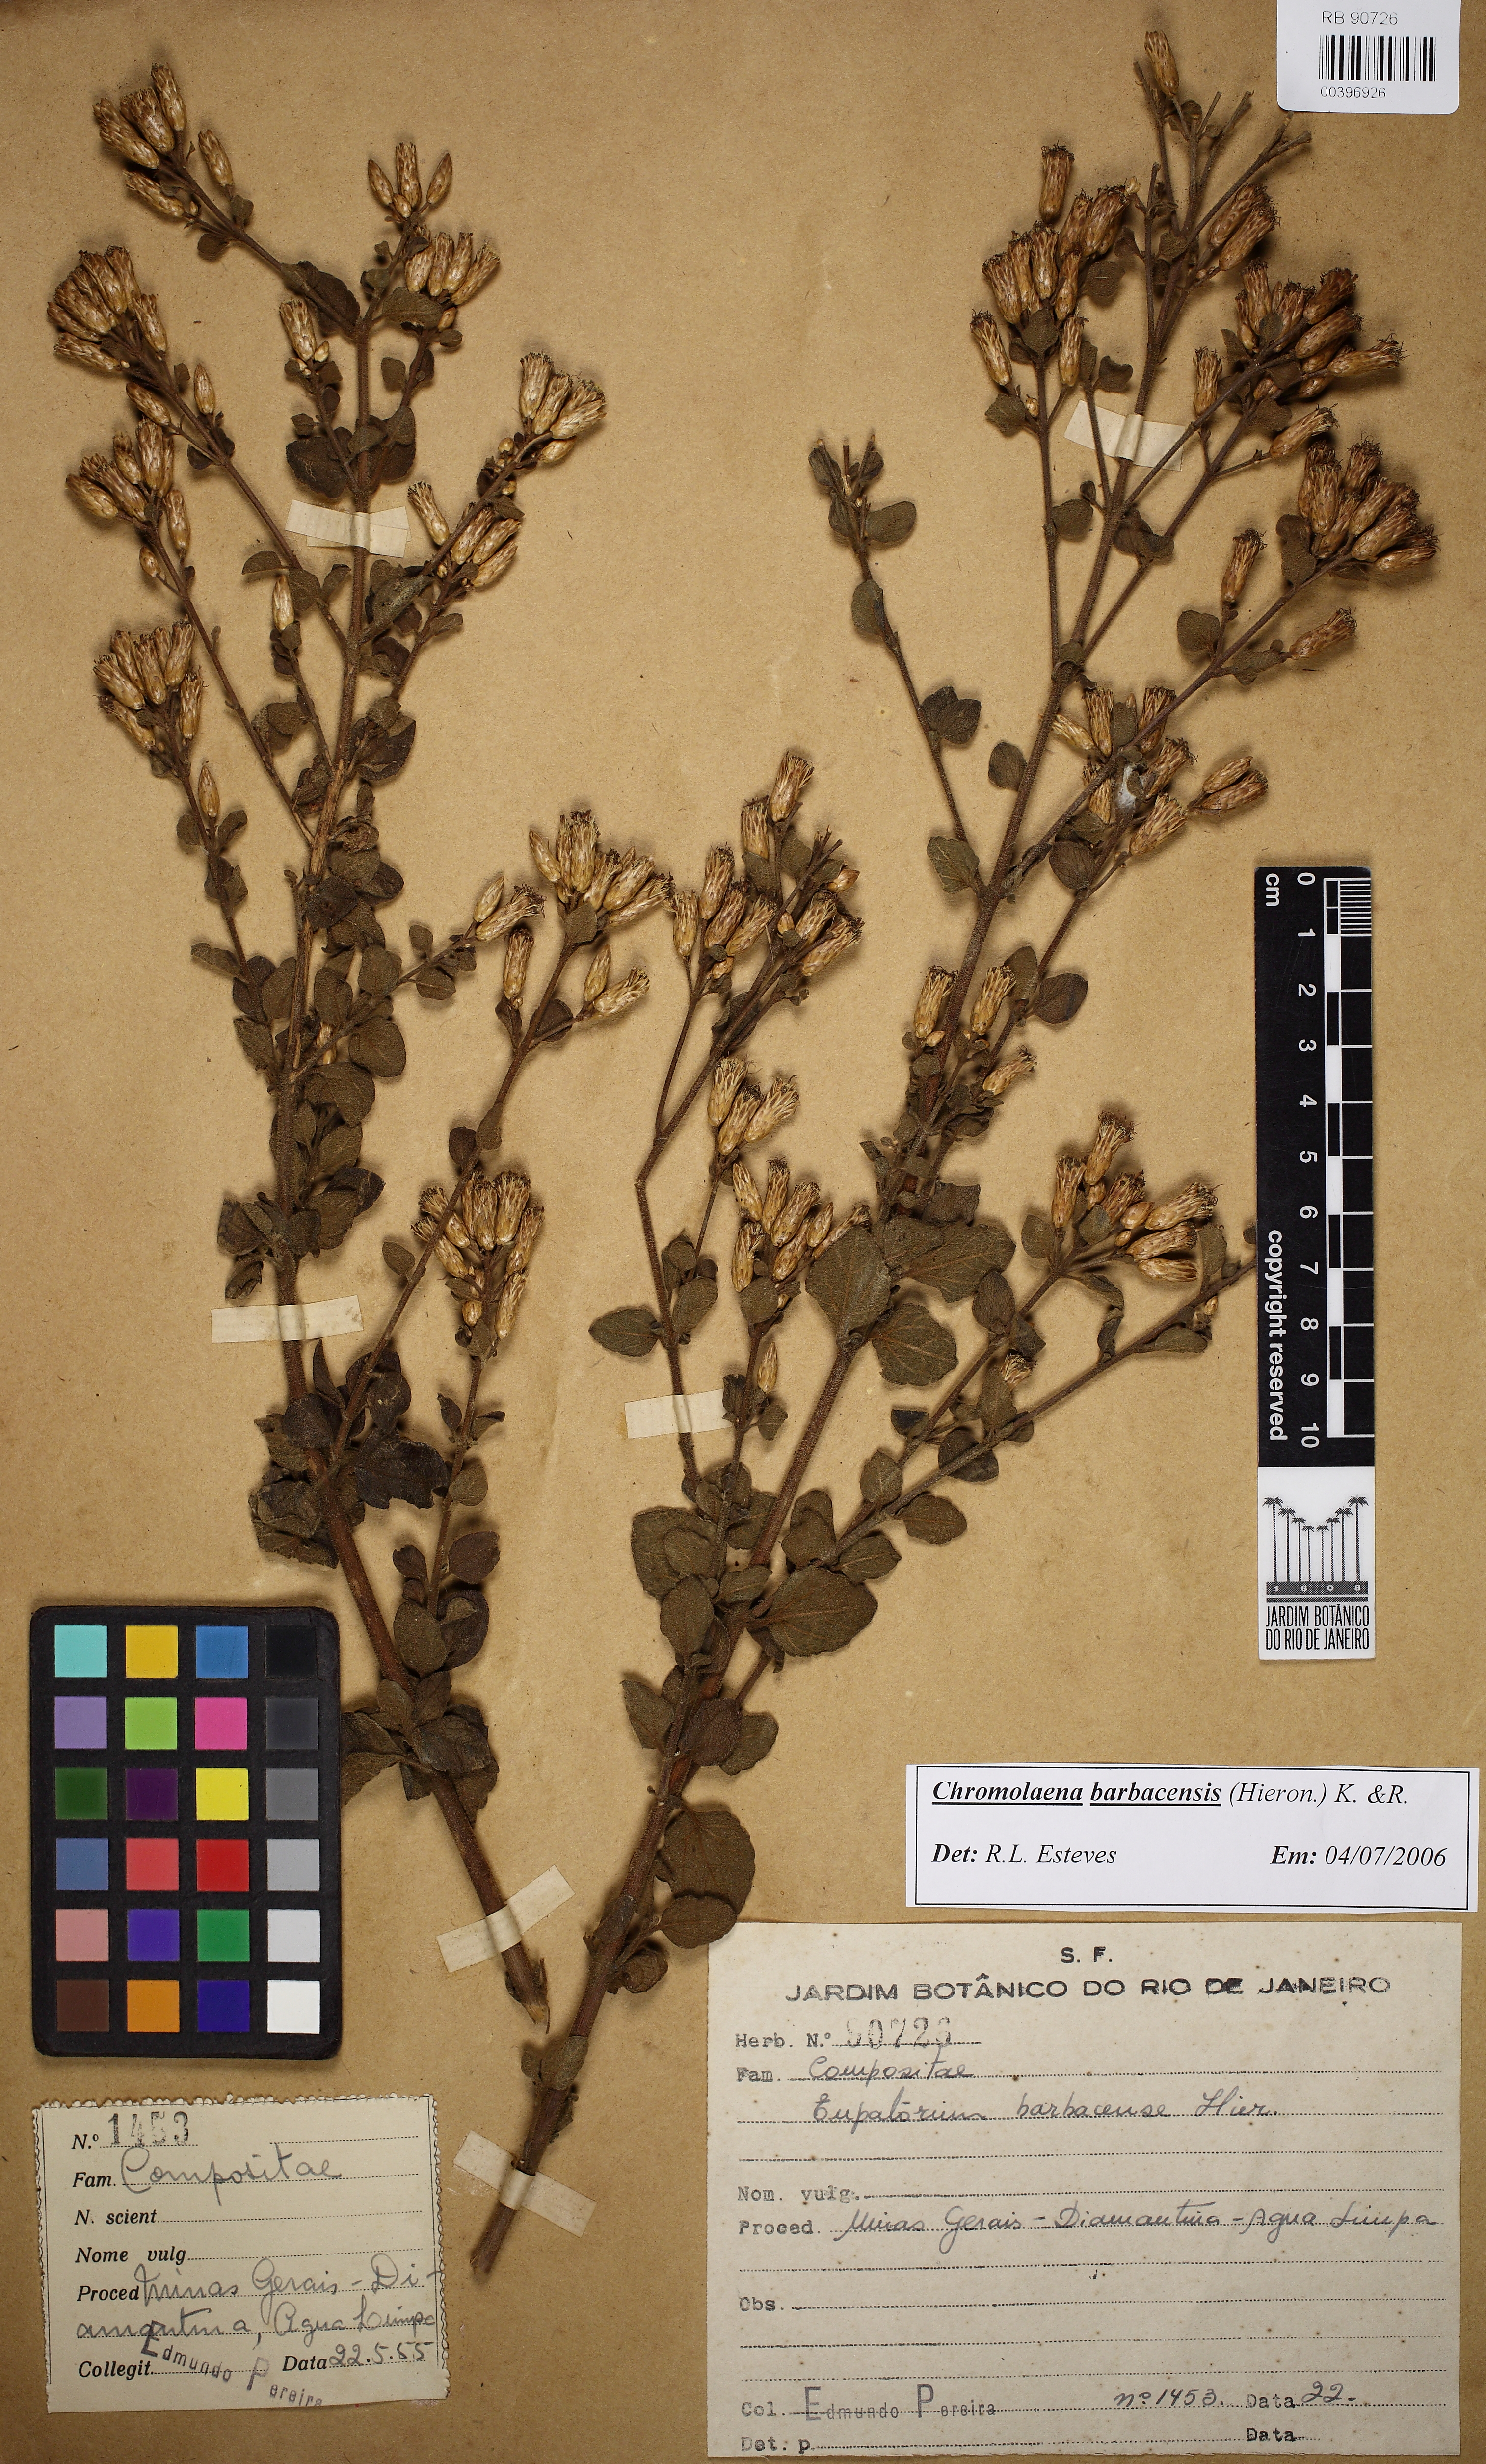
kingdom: Plantae
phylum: Tracheophyta
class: Magnoliopsida
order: Asterales
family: Asteraceae
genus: Chromolaena
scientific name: Chromolaena barbacensis
